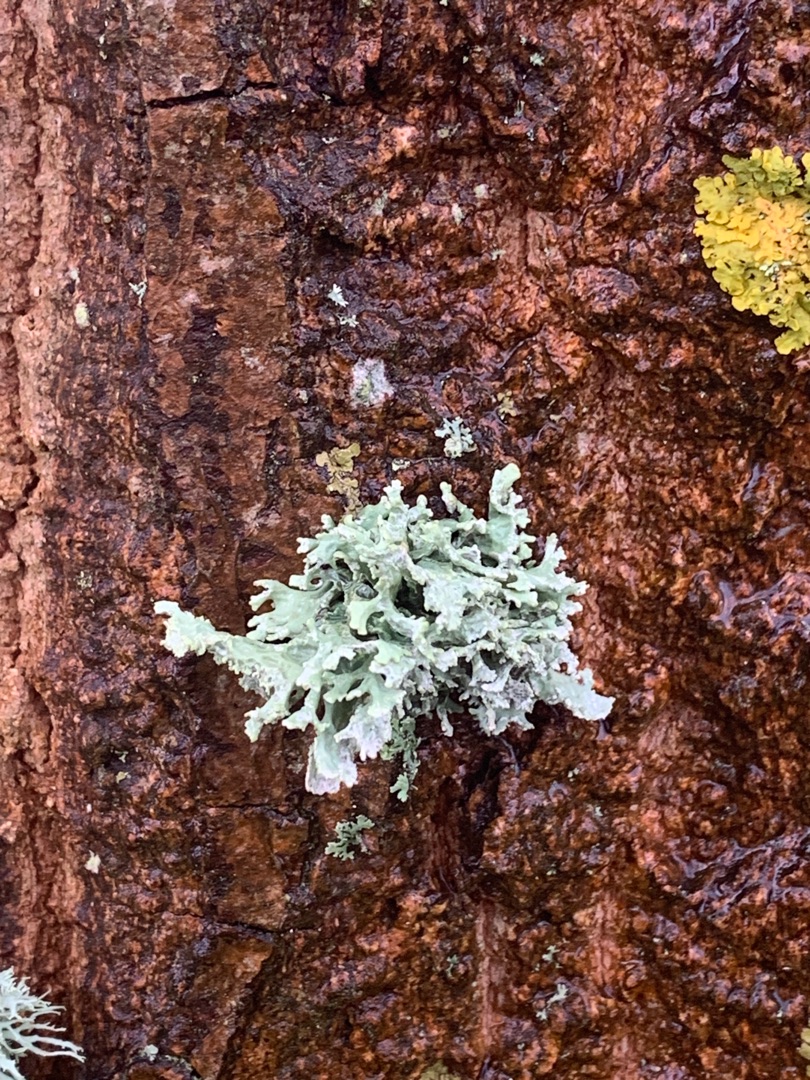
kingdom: Fungi
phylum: Ascomycota
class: Lecanoromycetes
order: Lecanorales
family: Parmeliaceae
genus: Evernia
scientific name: Evernia prunastri
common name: Almindelig slåenlav
